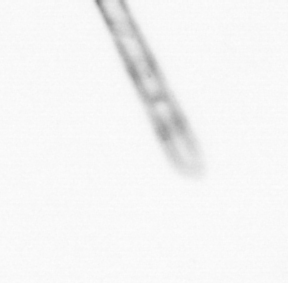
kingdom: Chromista
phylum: Ochrophyta
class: Bacillariophyceae
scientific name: Bacillariophyceae
